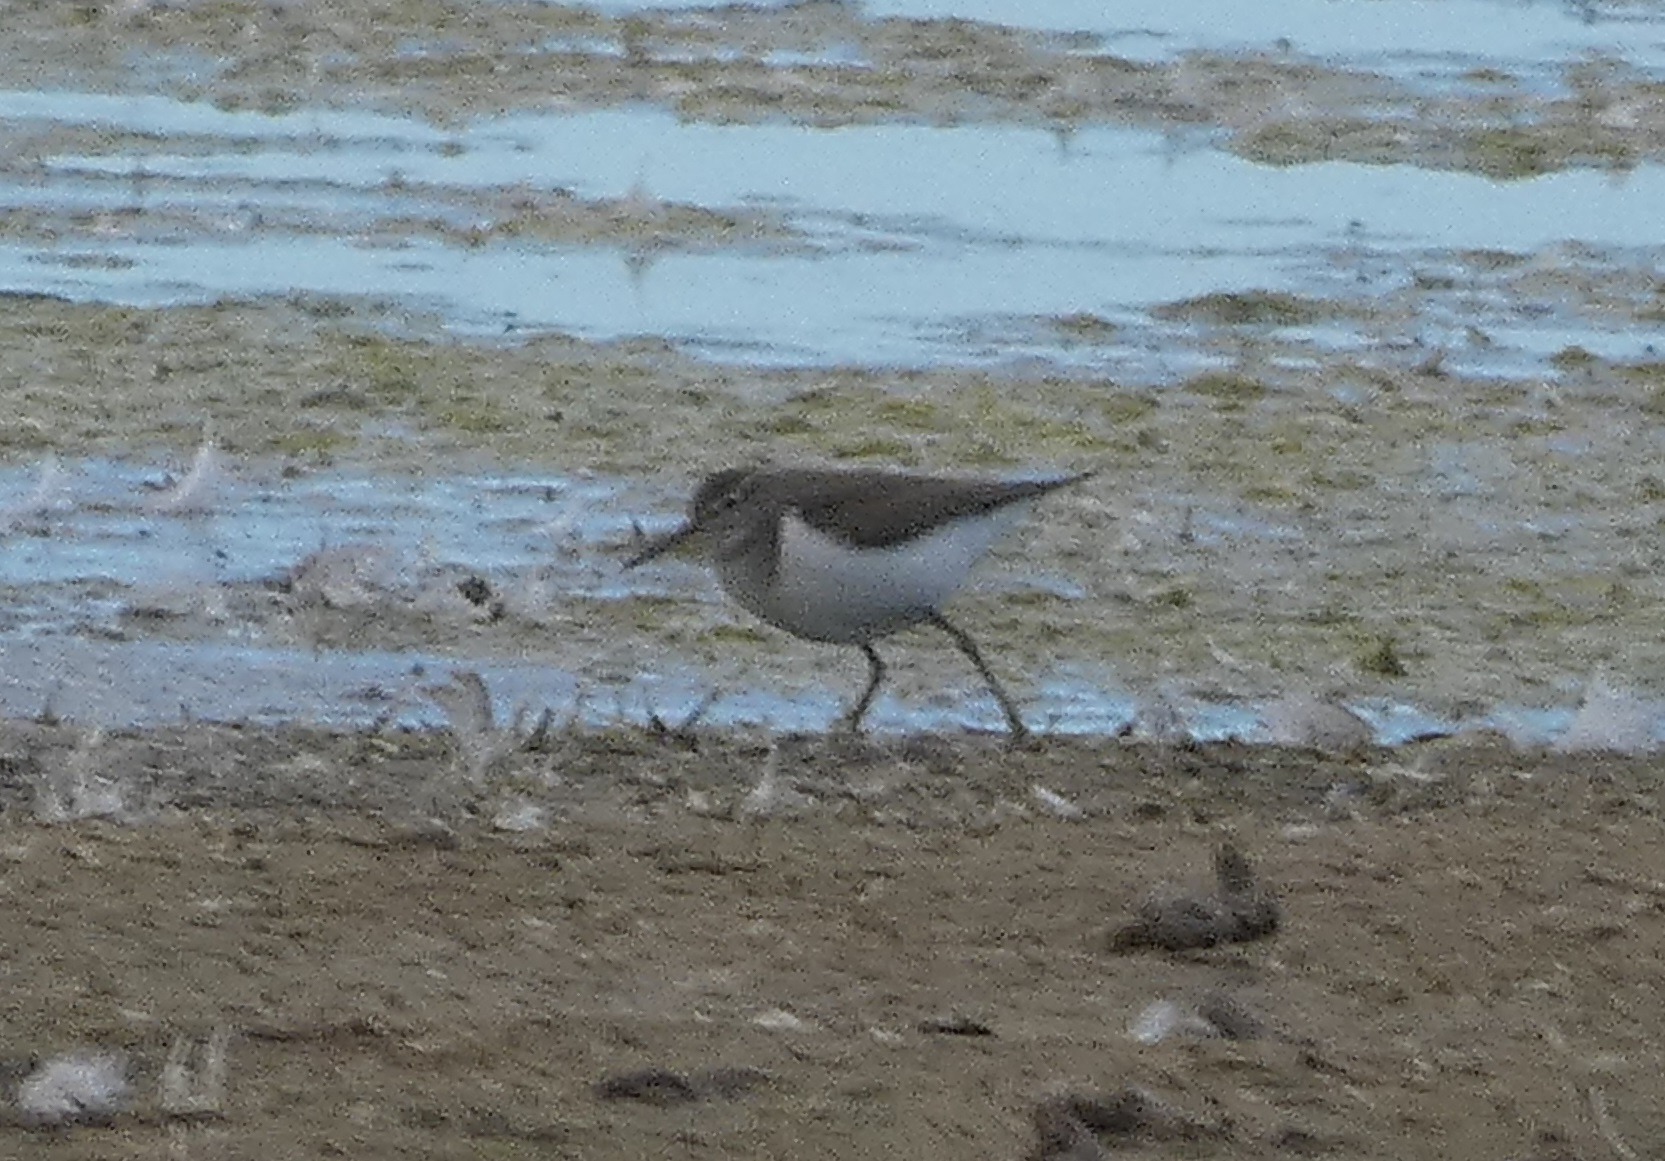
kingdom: Animalia
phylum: Chordata
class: Aves
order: Charadriiformes
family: Scolopacidae
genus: Actitis
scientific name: Actitis hypoleucos
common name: Mudderklire
